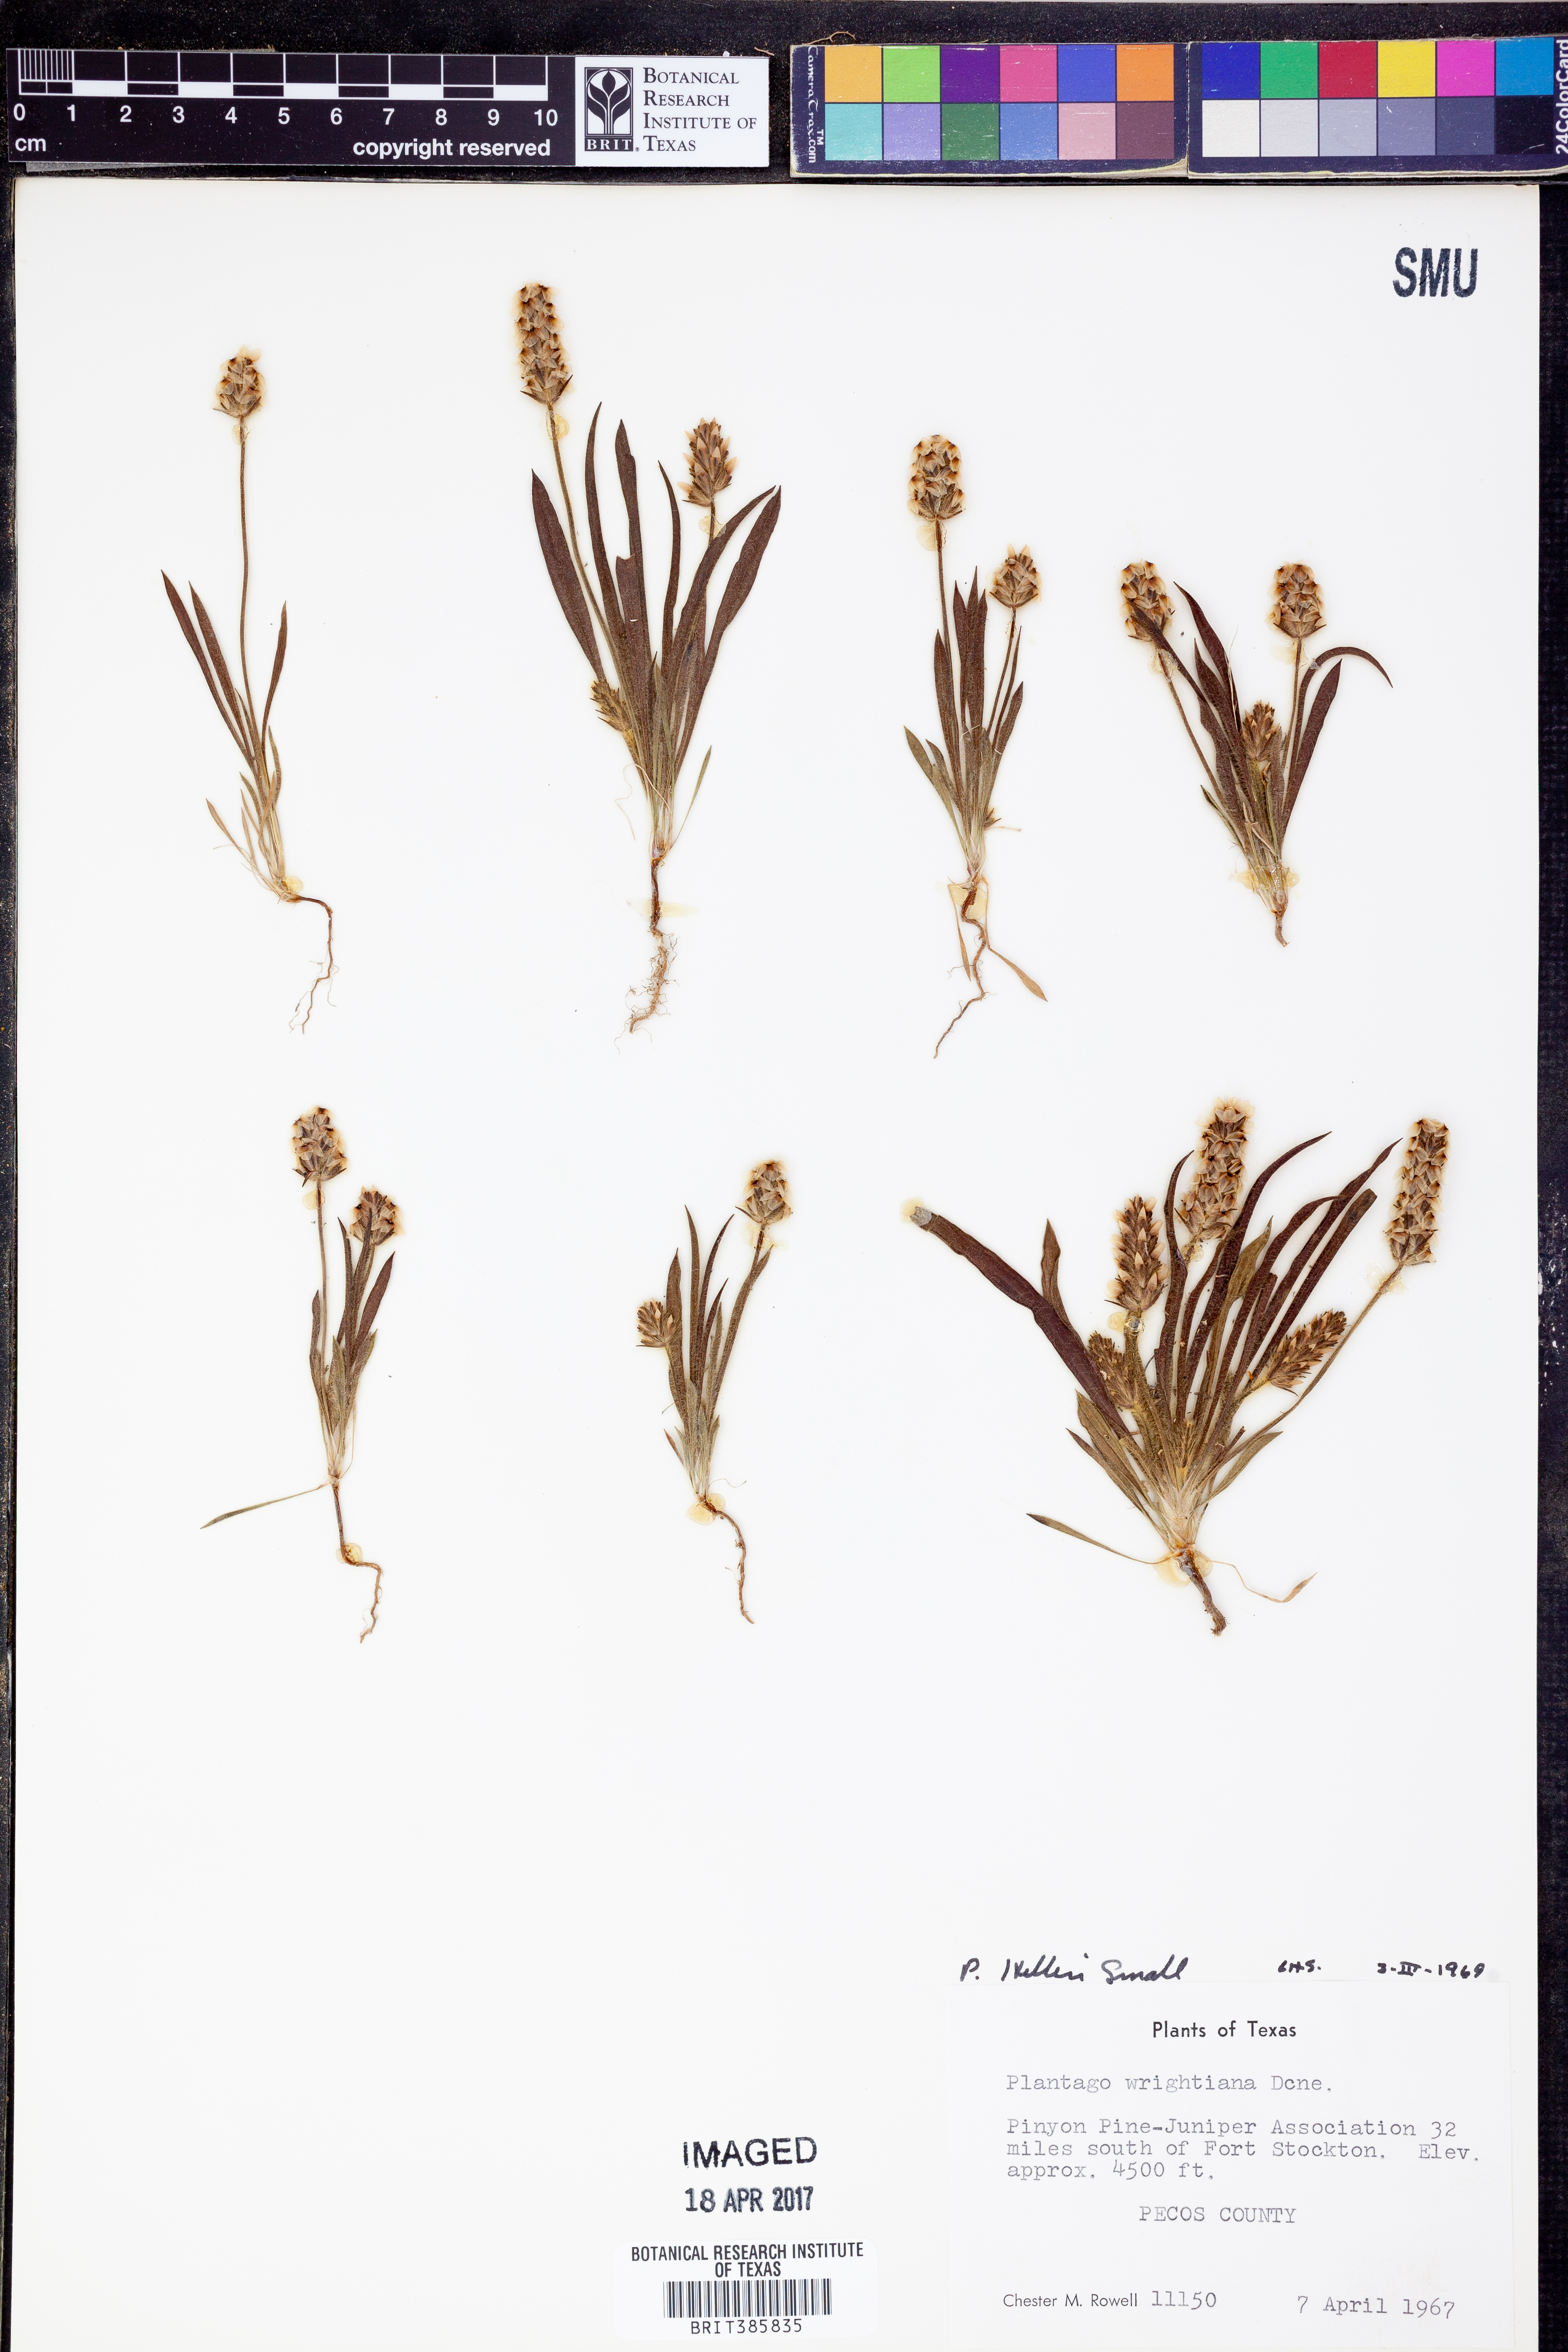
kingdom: Plantae
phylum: Tracheophyta
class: Magnoliopsida
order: Lamiales
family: Plantaginaceae
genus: Plantago
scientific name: Plantago helleri
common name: Heller's plantain
